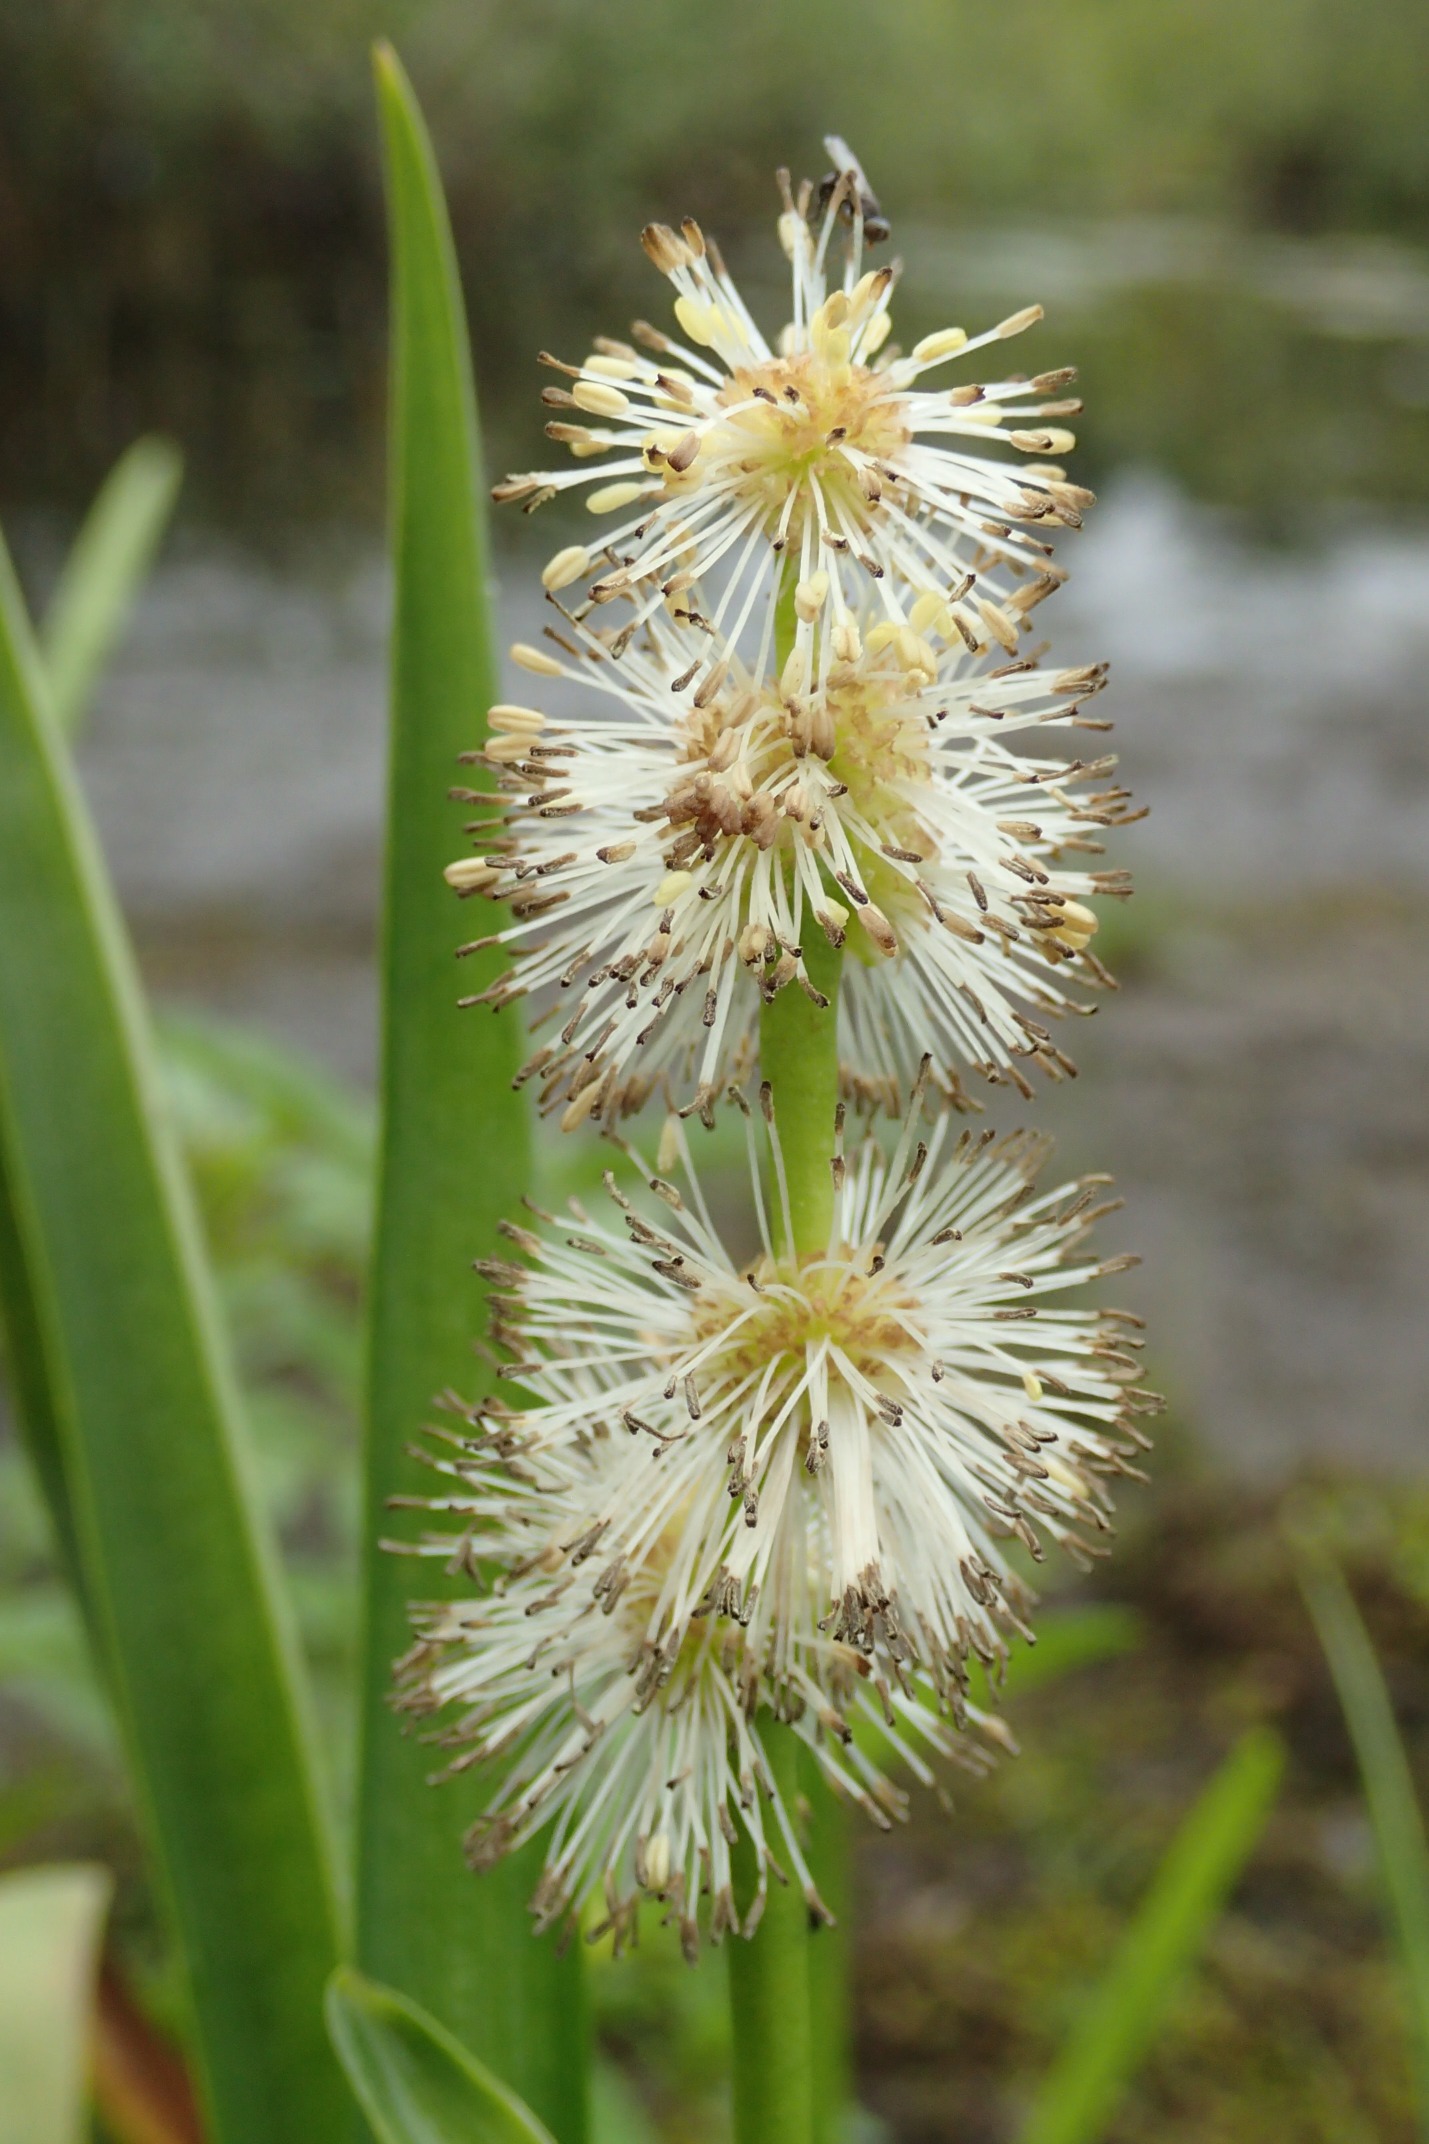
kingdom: Plantae
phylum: Tracheophyta
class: Liliopsida
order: Poales
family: Typhaceae
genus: Sparganium
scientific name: Sparganium emersum
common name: Enkelt pindsvineknop
